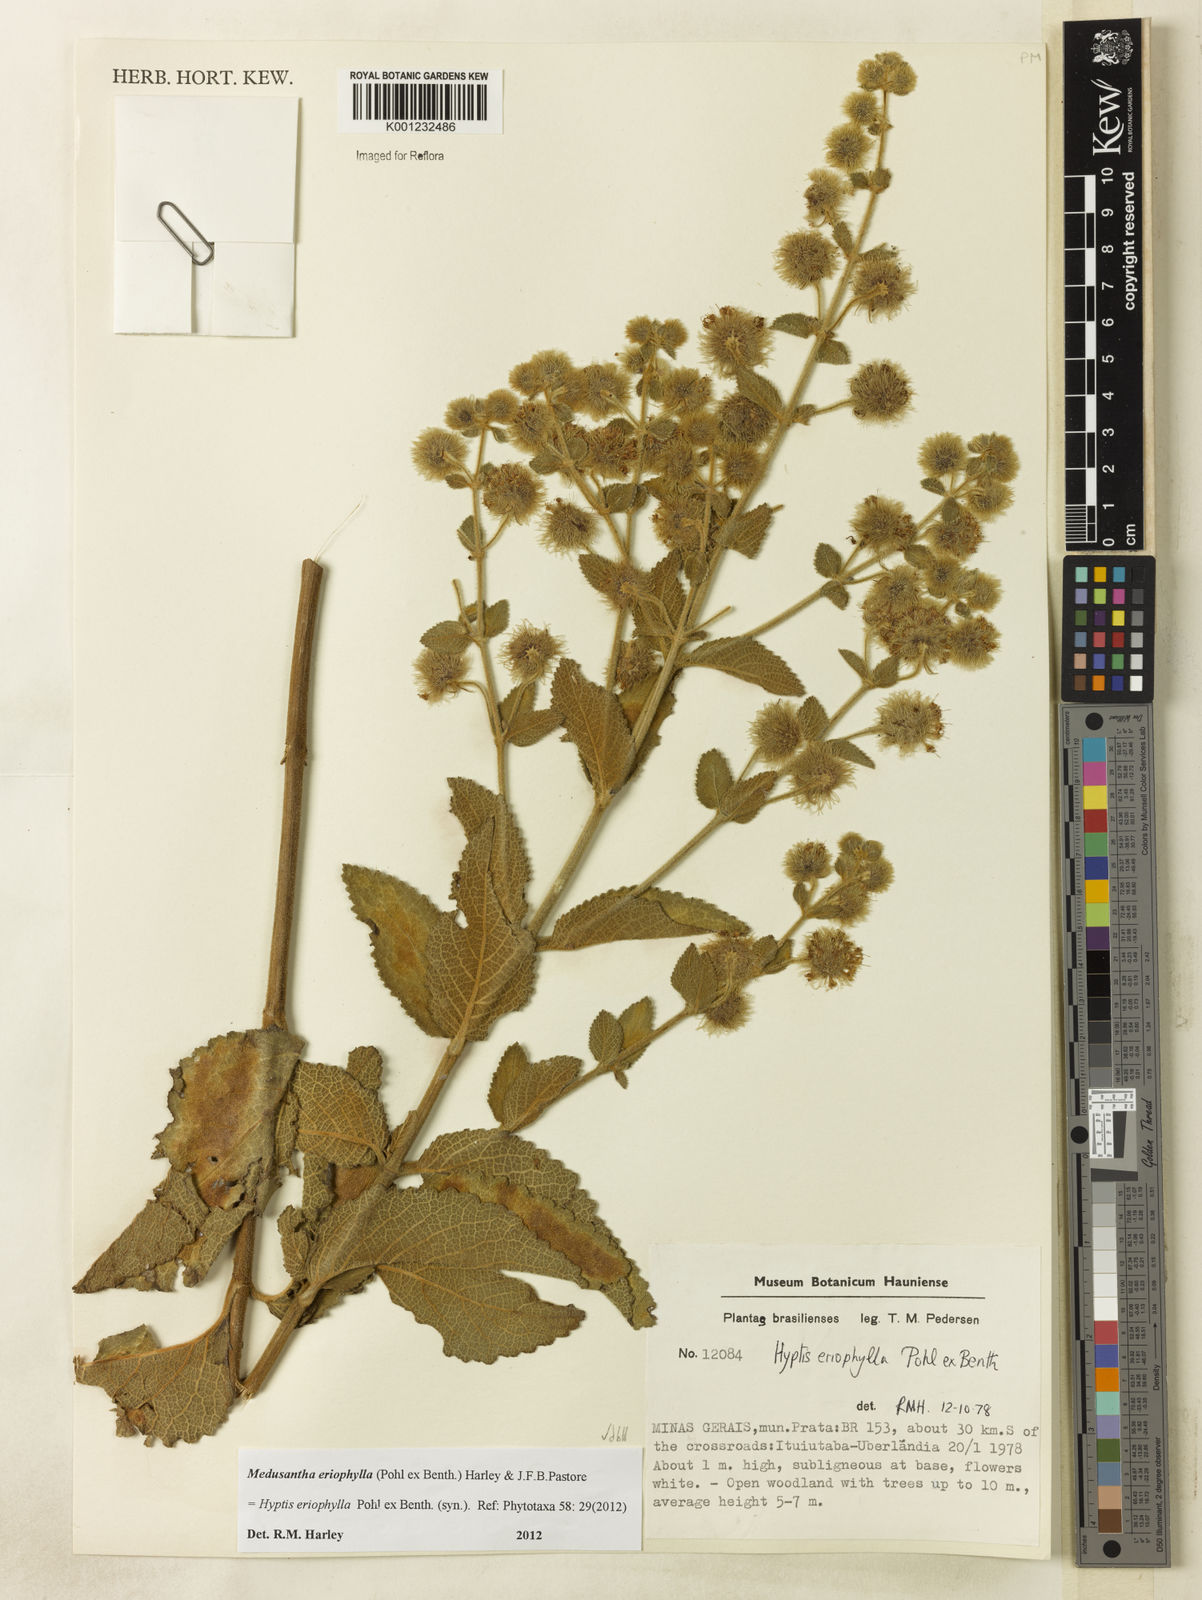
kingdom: Plantae
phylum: Tracheophyta
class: Magnoliopsida
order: Lamiales
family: Lamiaceae
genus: Medusantha
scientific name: Medusantha eriophylla
